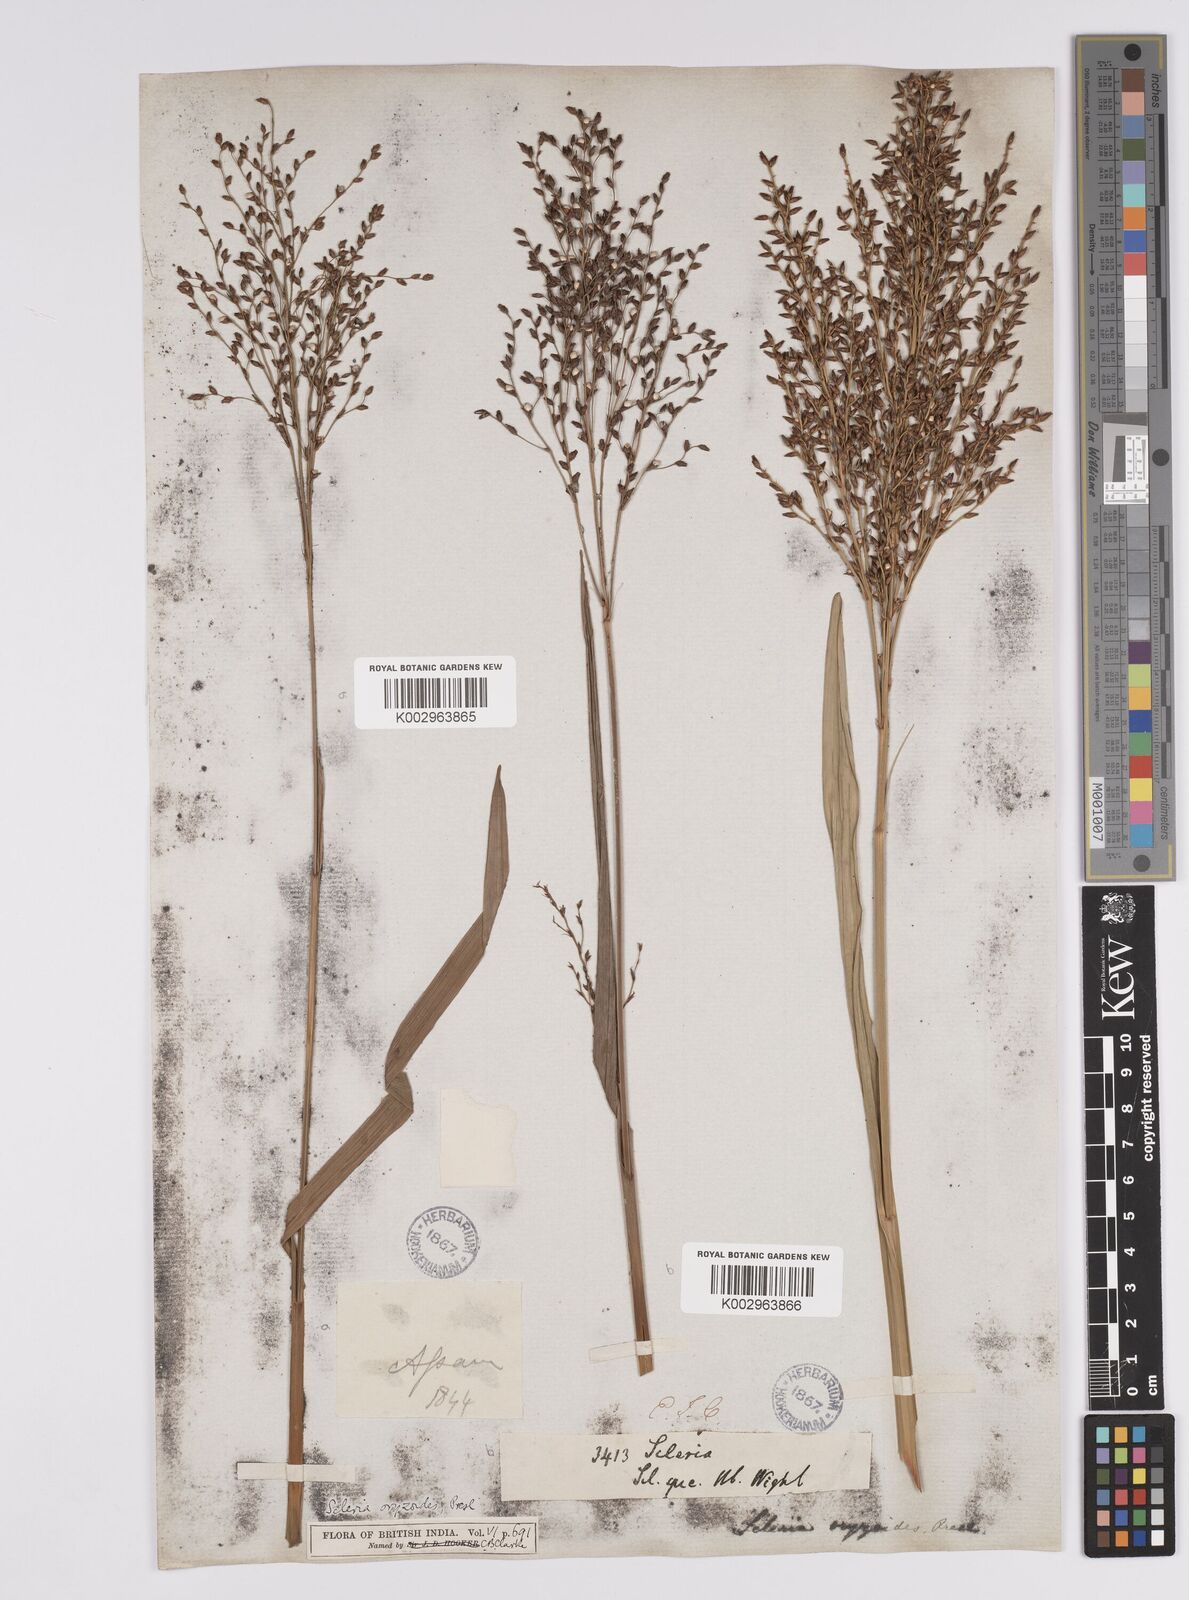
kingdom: Plantae
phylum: Tracheophyta
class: Liliopsida
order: Poales
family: Cyperaceae
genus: Scleria
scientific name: Scleria poiformis
